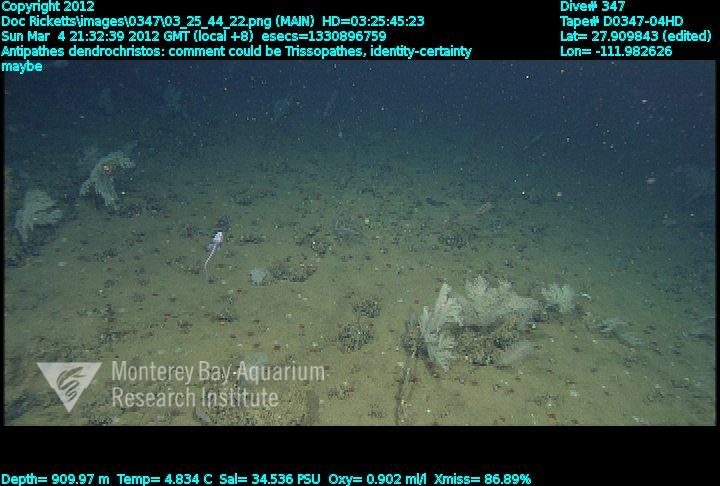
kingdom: Animalia
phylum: Cnidaria
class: Anthozoa
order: Antipatharia
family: Cladopathidae
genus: Trissopathes
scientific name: Trissopathes
